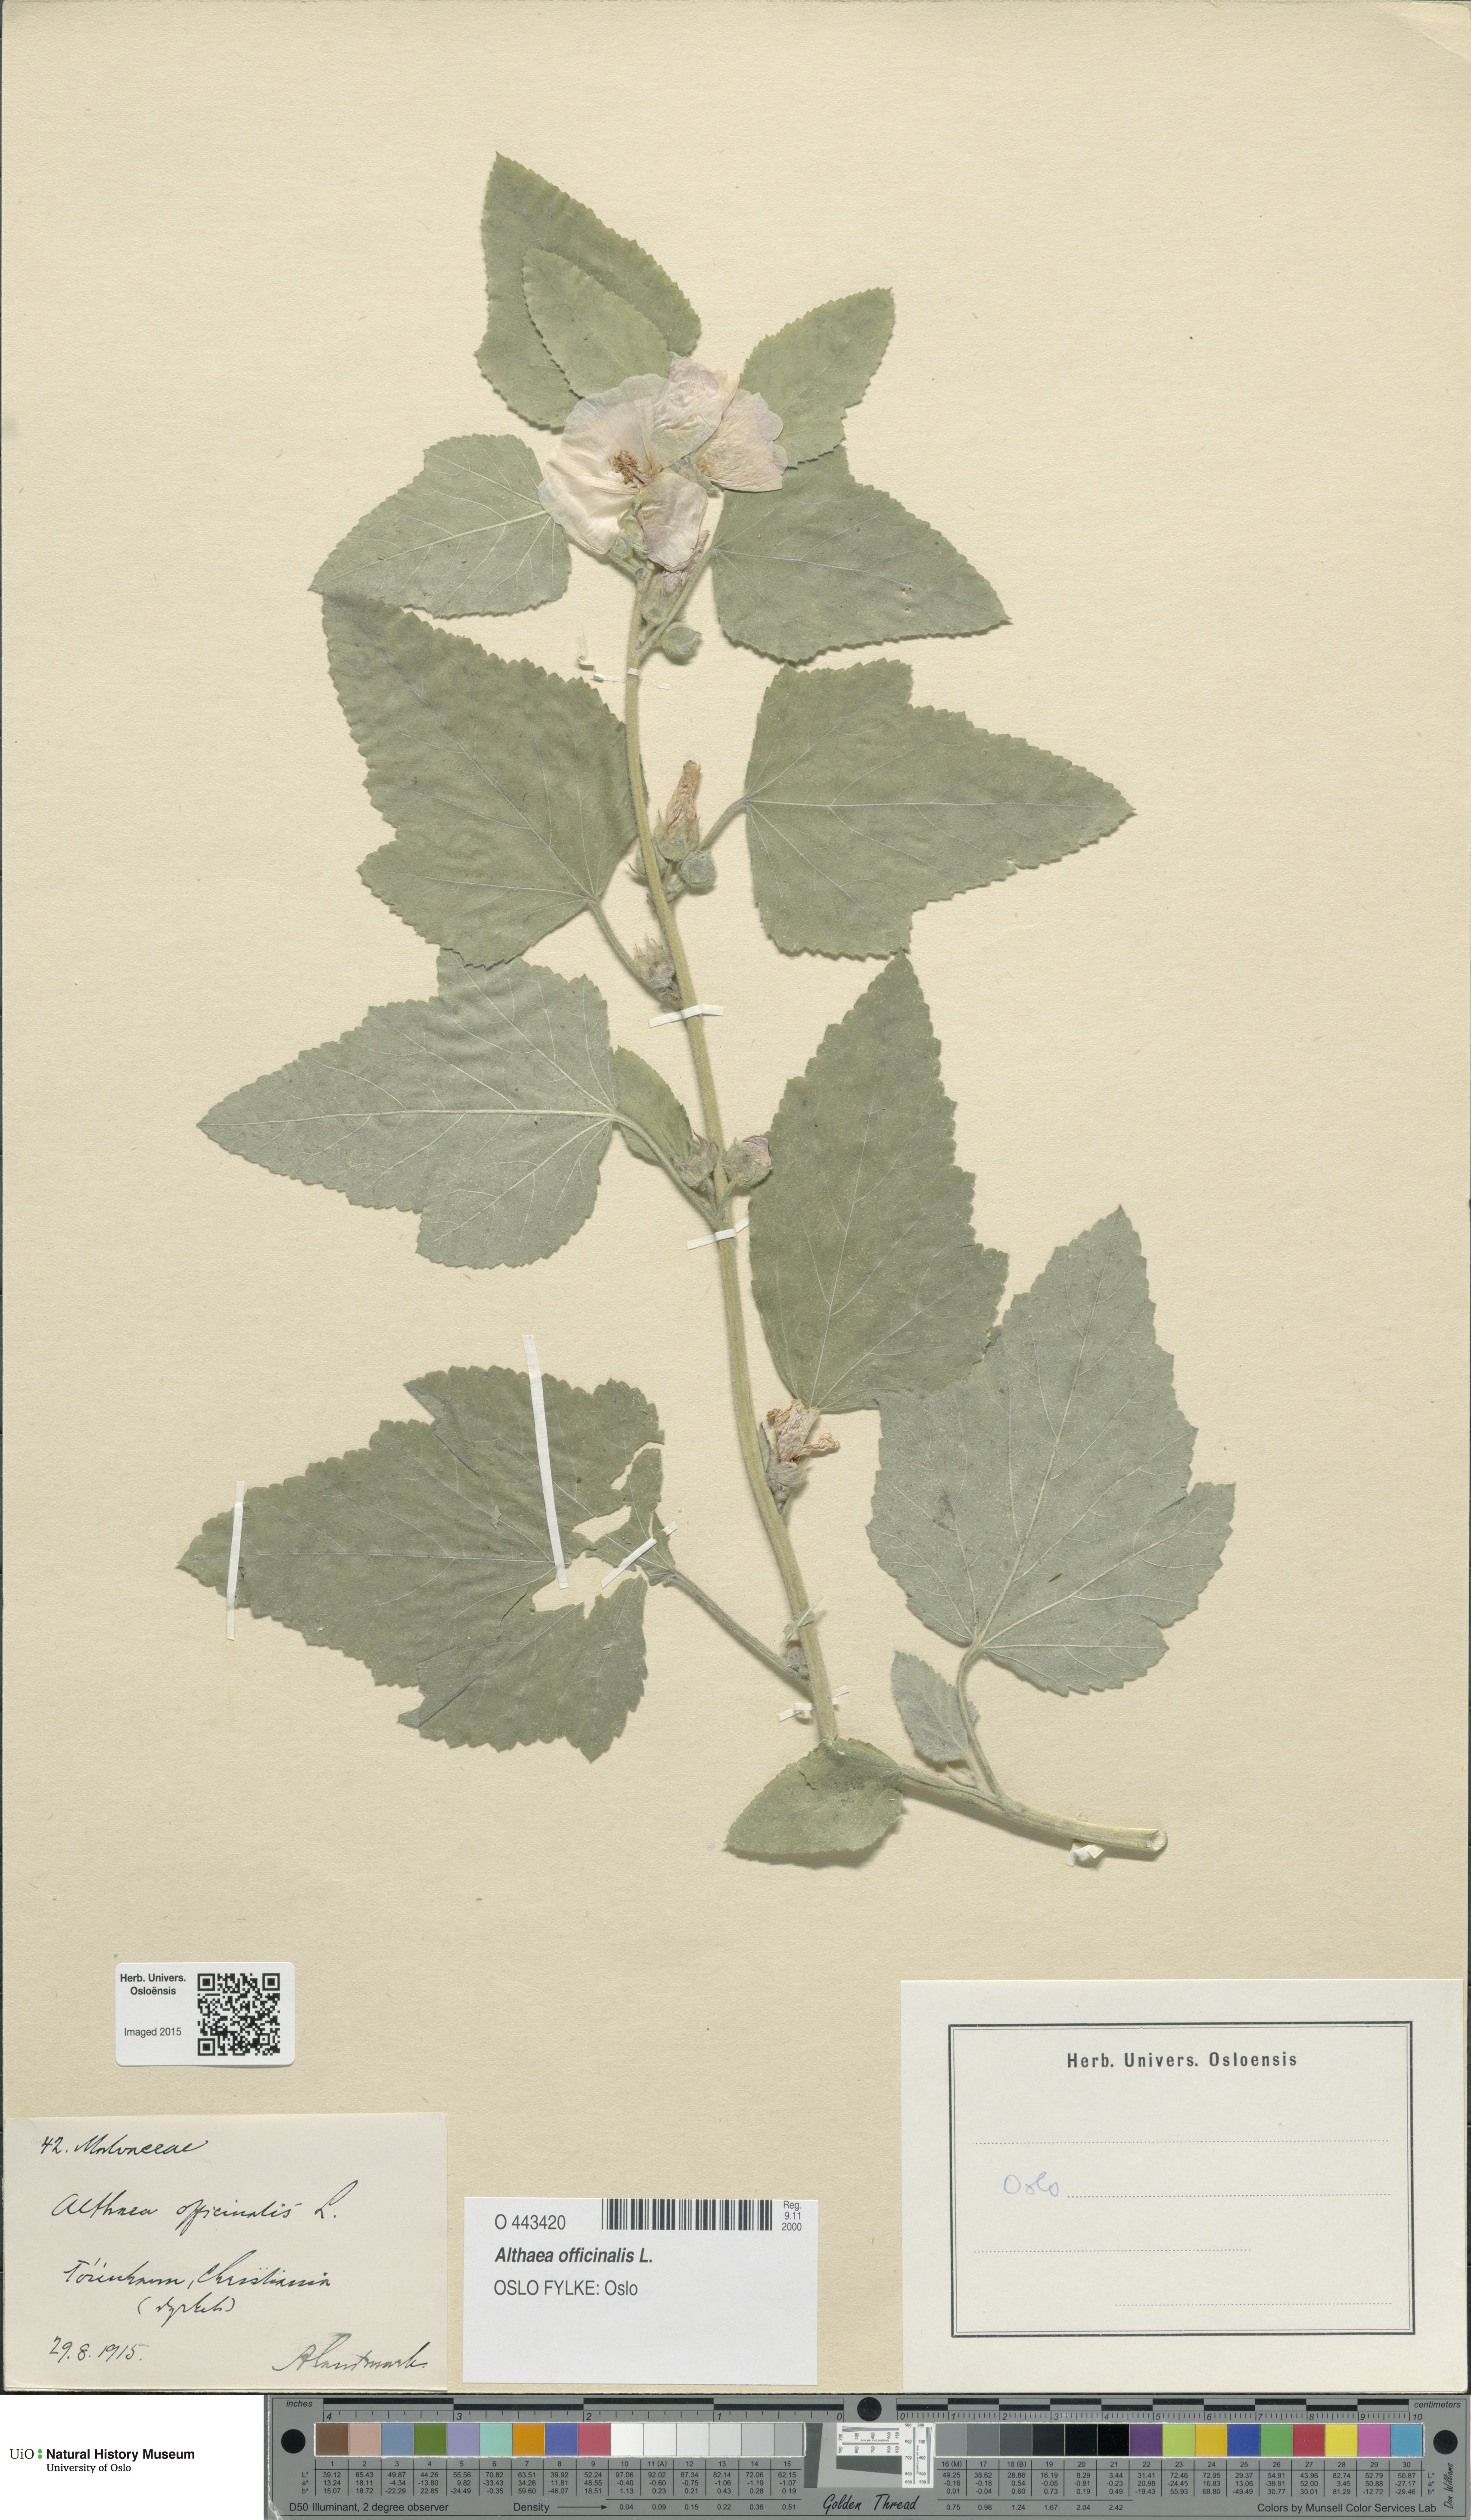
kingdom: Plantae
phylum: Tracheophyta
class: Magnoliopsida
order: Malvales
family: Malvaceae
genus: Althaea
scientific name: Althaea officinalis
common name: Marsh-mallow
